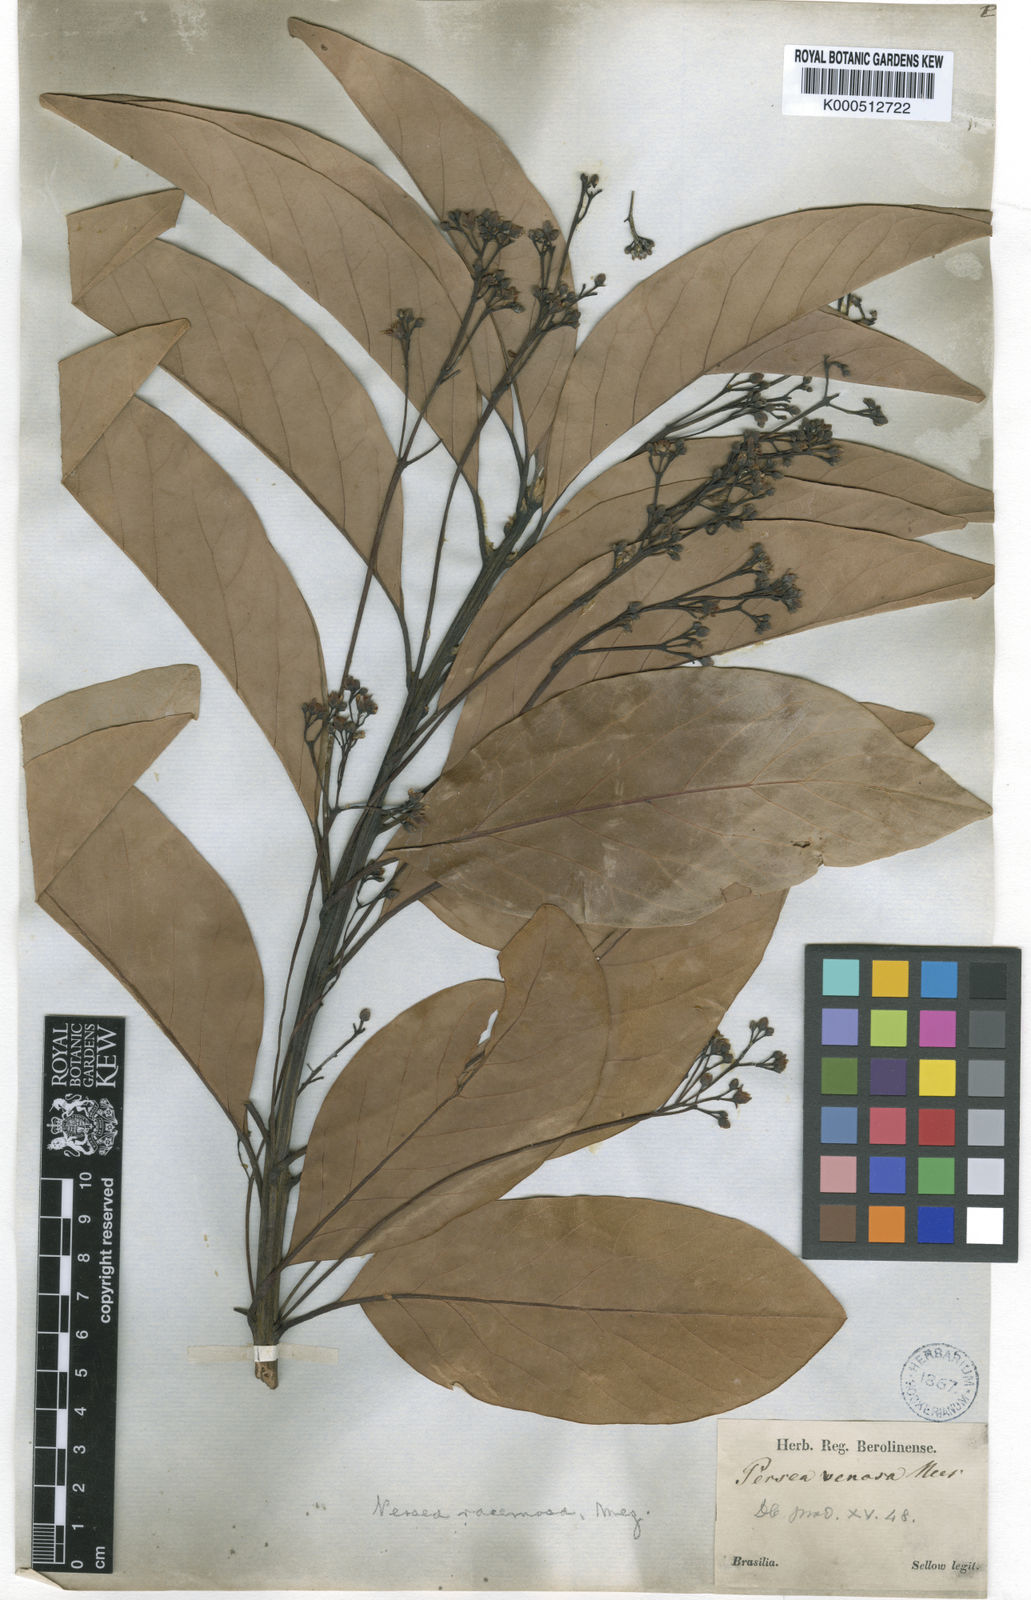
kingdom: Plantae
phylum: Tracheophyta
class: Magnoliopsida
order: Laurales
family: Lauraceae
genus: Persea
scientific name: Persea venosa
